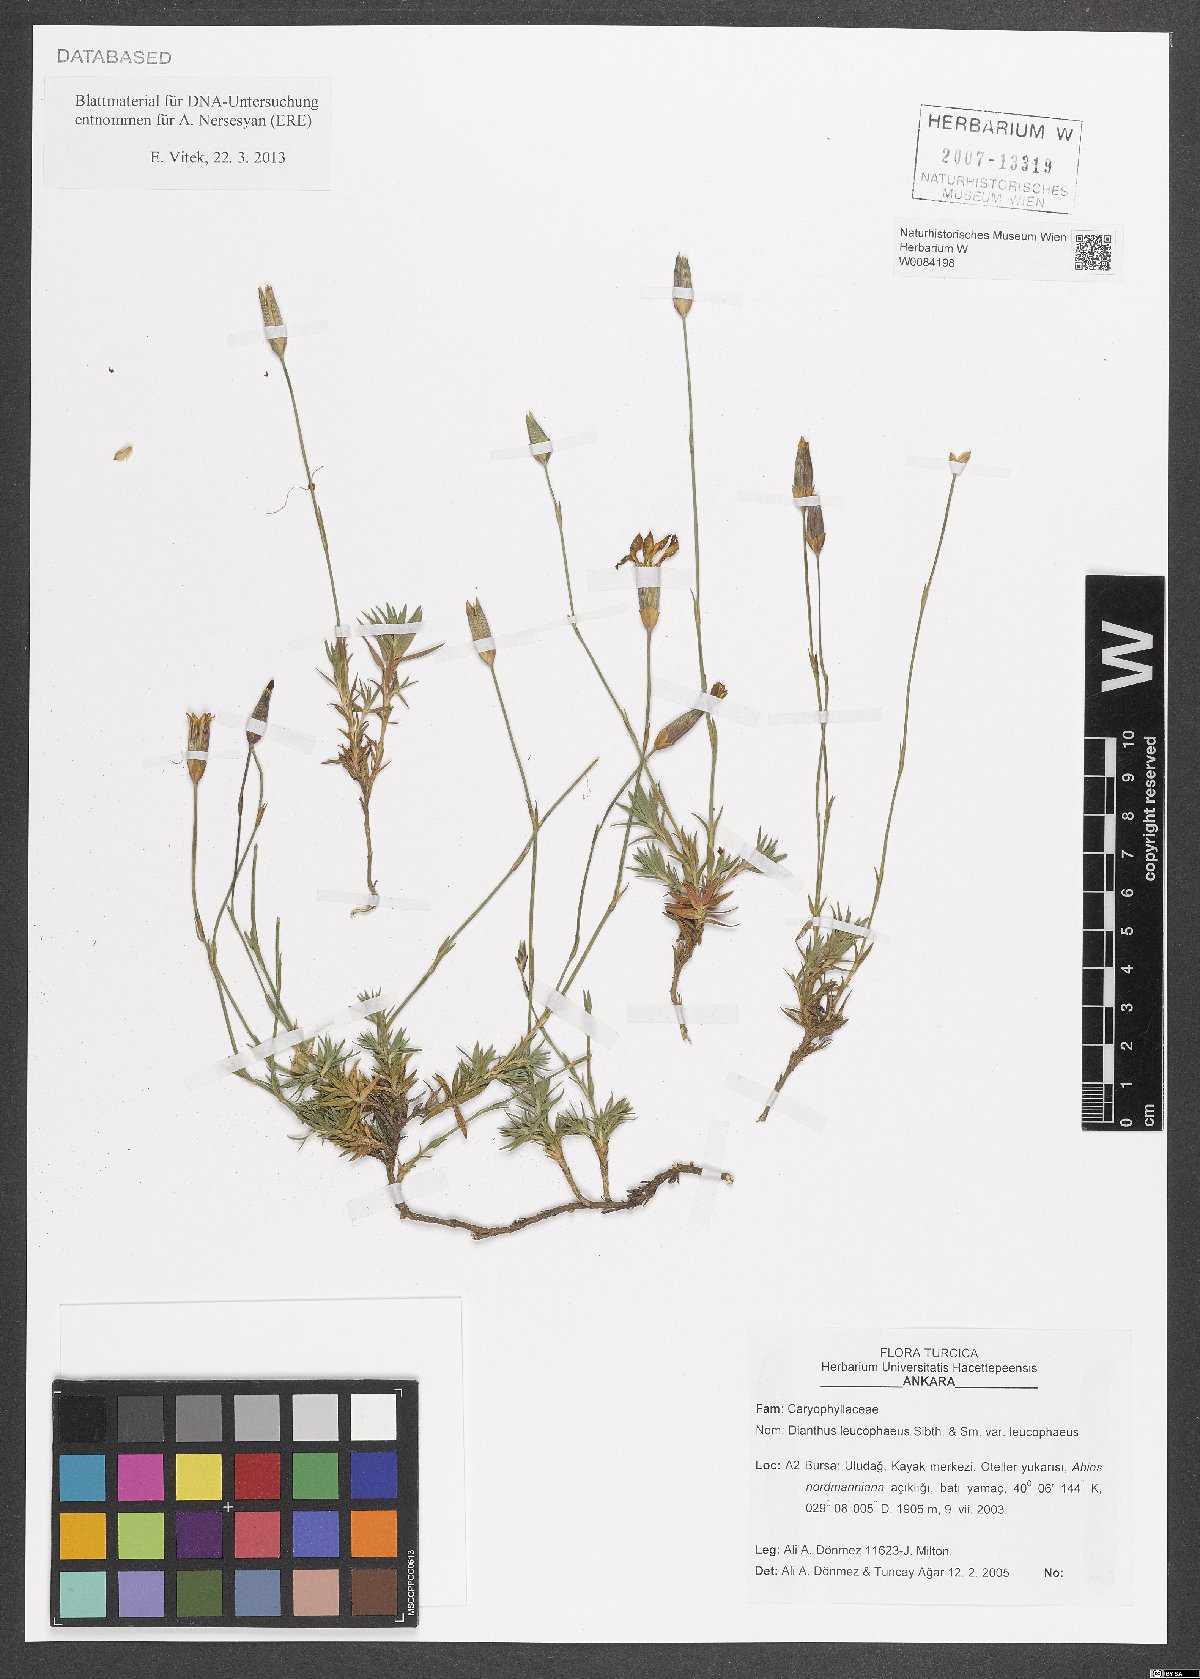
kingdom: Plantae
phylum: Tracheophyta
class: Magnoliopsida
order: Caryophyllales
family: Caryophyllaceae
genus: Dianthus
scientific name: Dianthus leucophaeus
